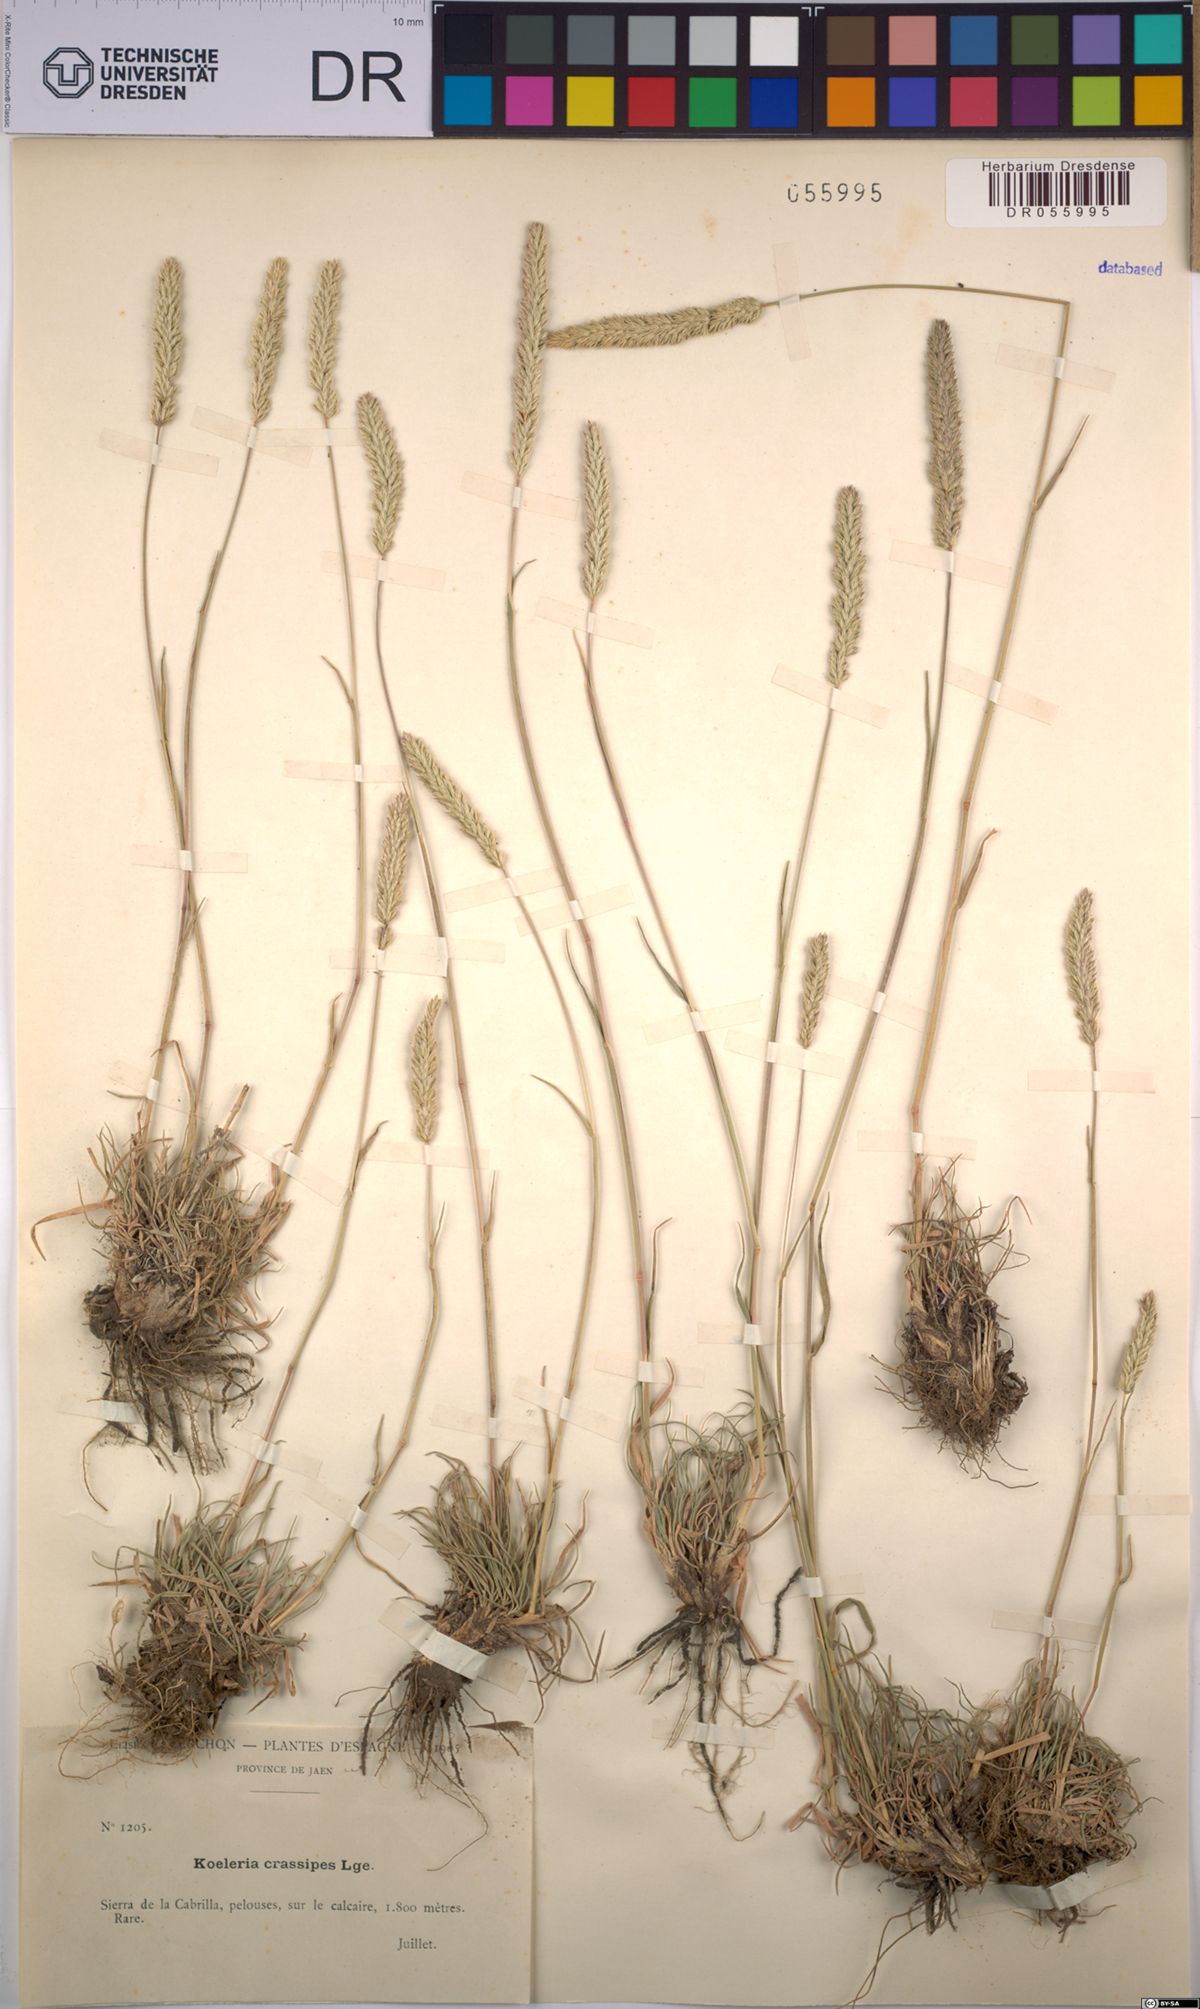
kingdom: Plantae
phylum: Tracheophyta
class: Liliopsida
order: Poales
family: Poaceae
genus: Koeleria
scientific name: Koeleria crassipes
